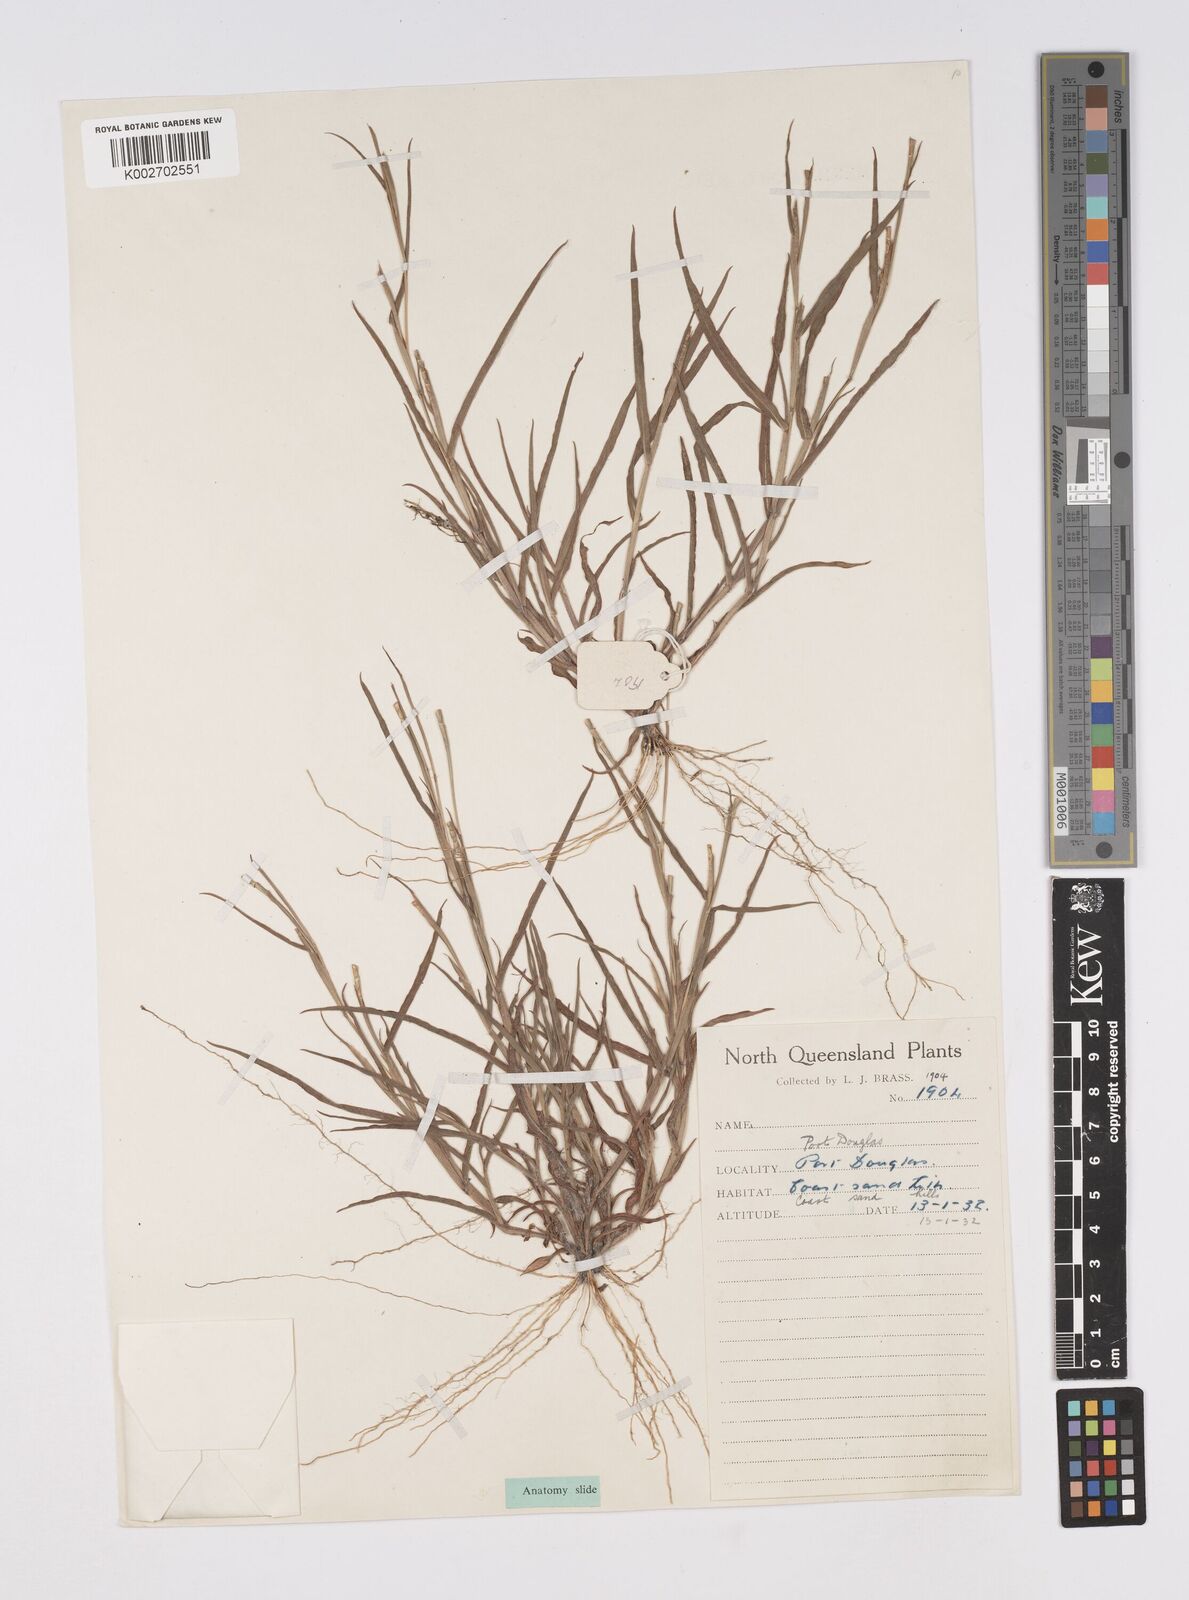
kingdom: Plantae
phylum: Tracheophyta
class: Liliopsida
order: Poales
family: Poaceae
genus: Thaumastochloa
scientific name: Thaumastochloa pubescens
